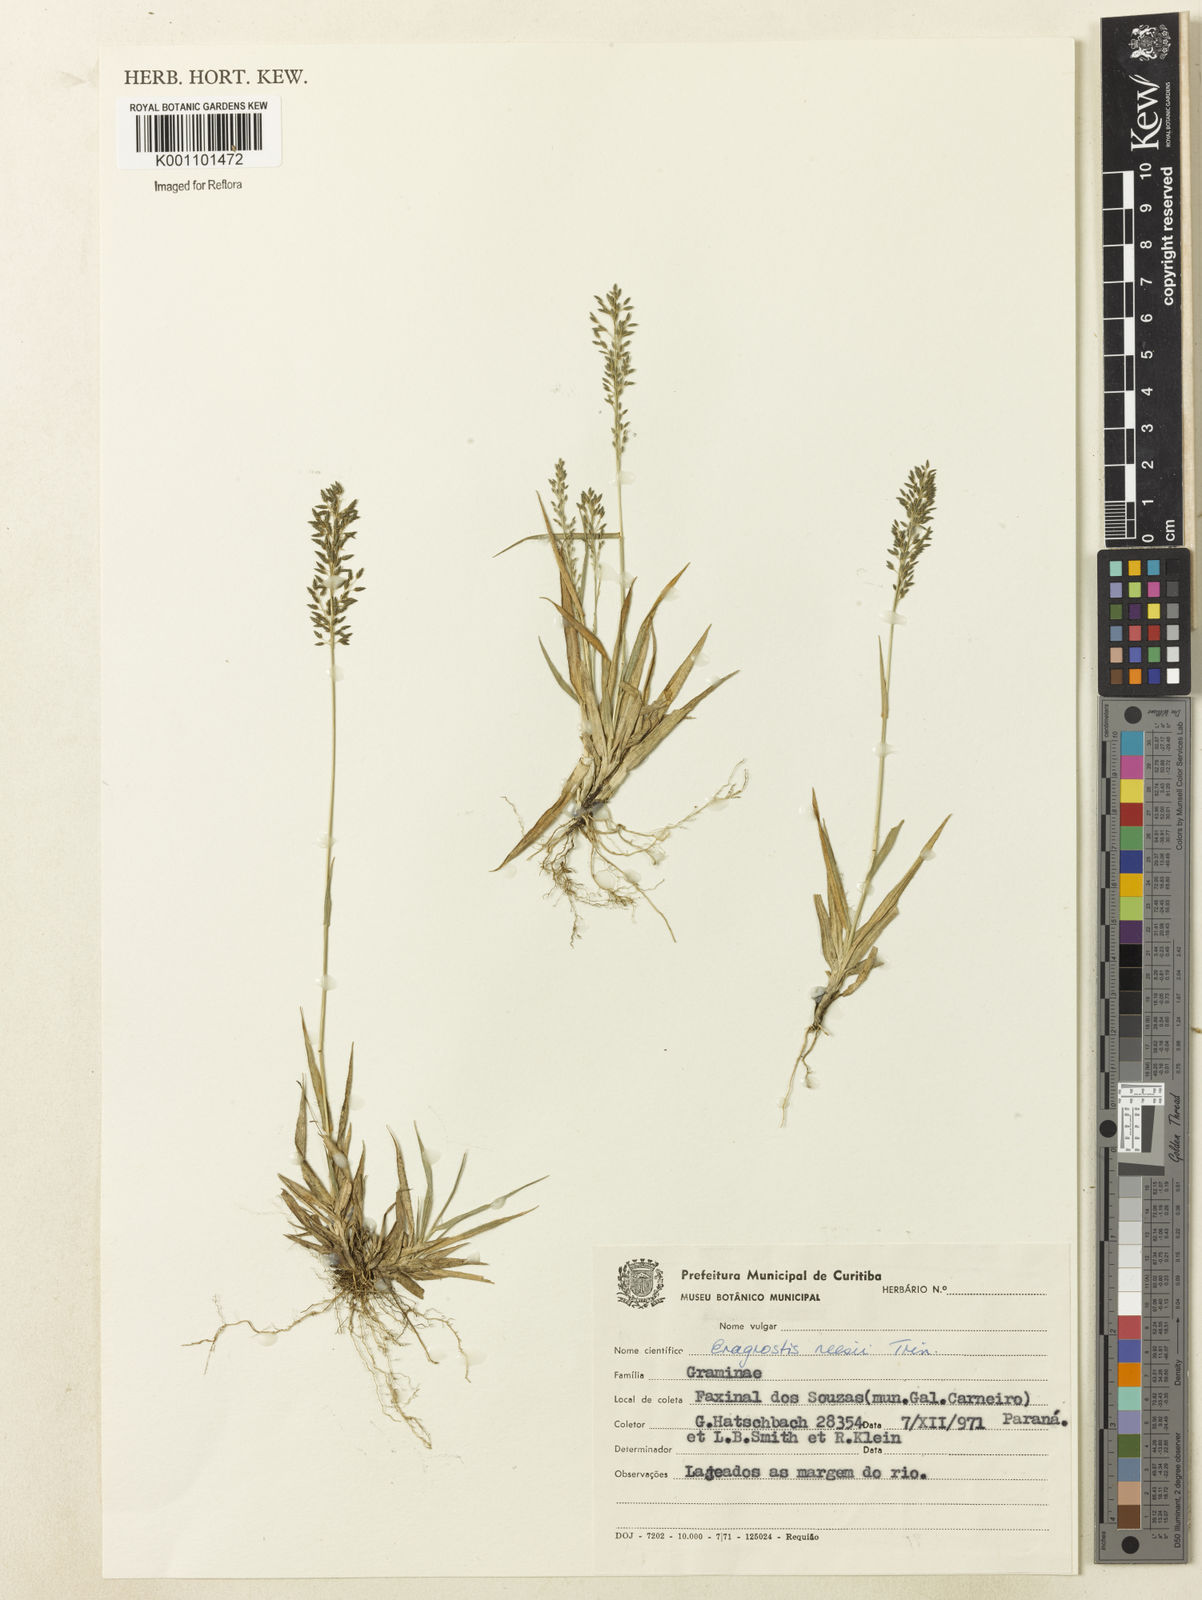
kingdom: Plantae
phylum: Tracheophyta
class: Liliopsida
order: Poales
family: Poaceae
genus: Eragrostis
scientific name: Eragrostis neesii
